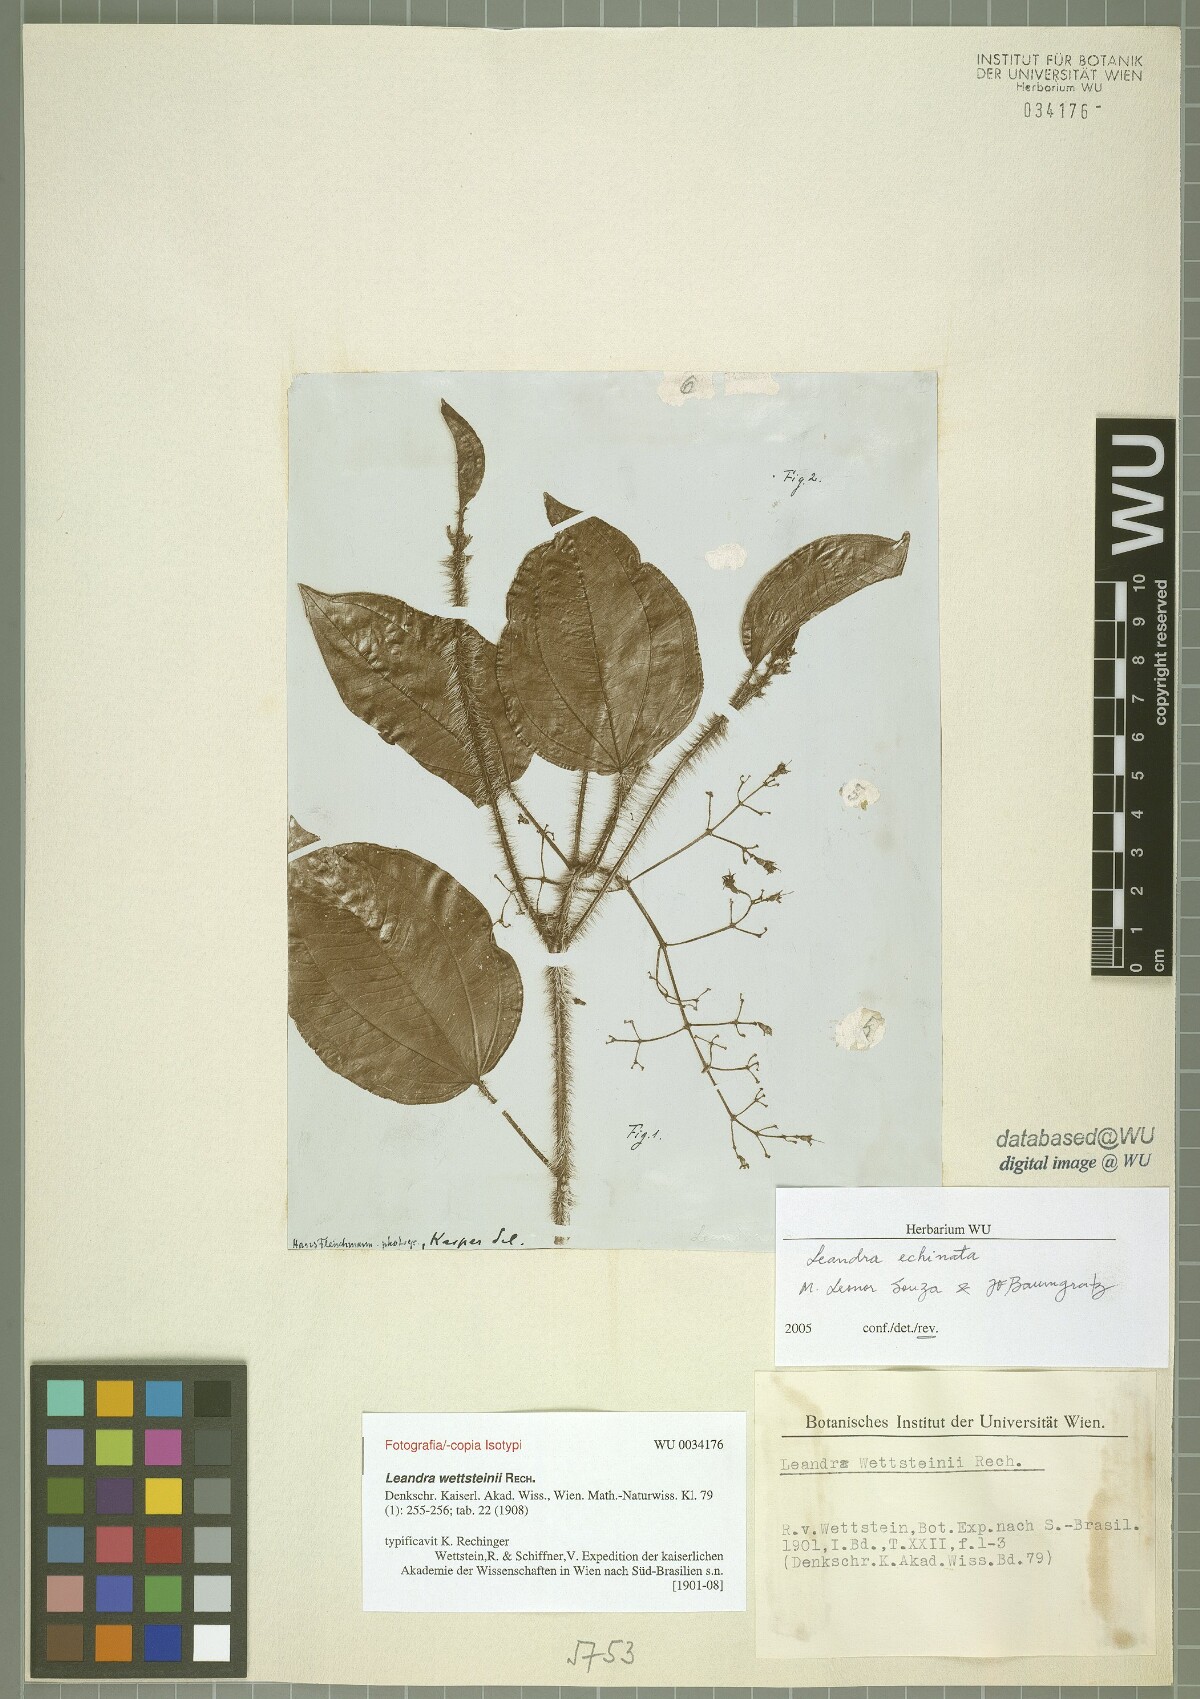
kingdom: Plantae
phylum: Tracheophyta
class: Magnoliopsida
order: Myrtales
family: Melastomataceae
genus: Miconia
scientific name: Miconia leaechinata
